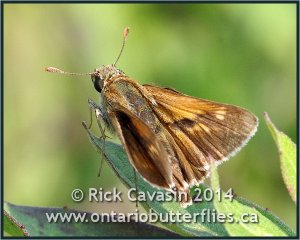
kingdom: Animalia
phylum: Arthropoda
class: Insecta
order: Lepidoptera
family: Hesperiidae
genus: Polites
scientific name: Polites
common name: Crossline Skipper
